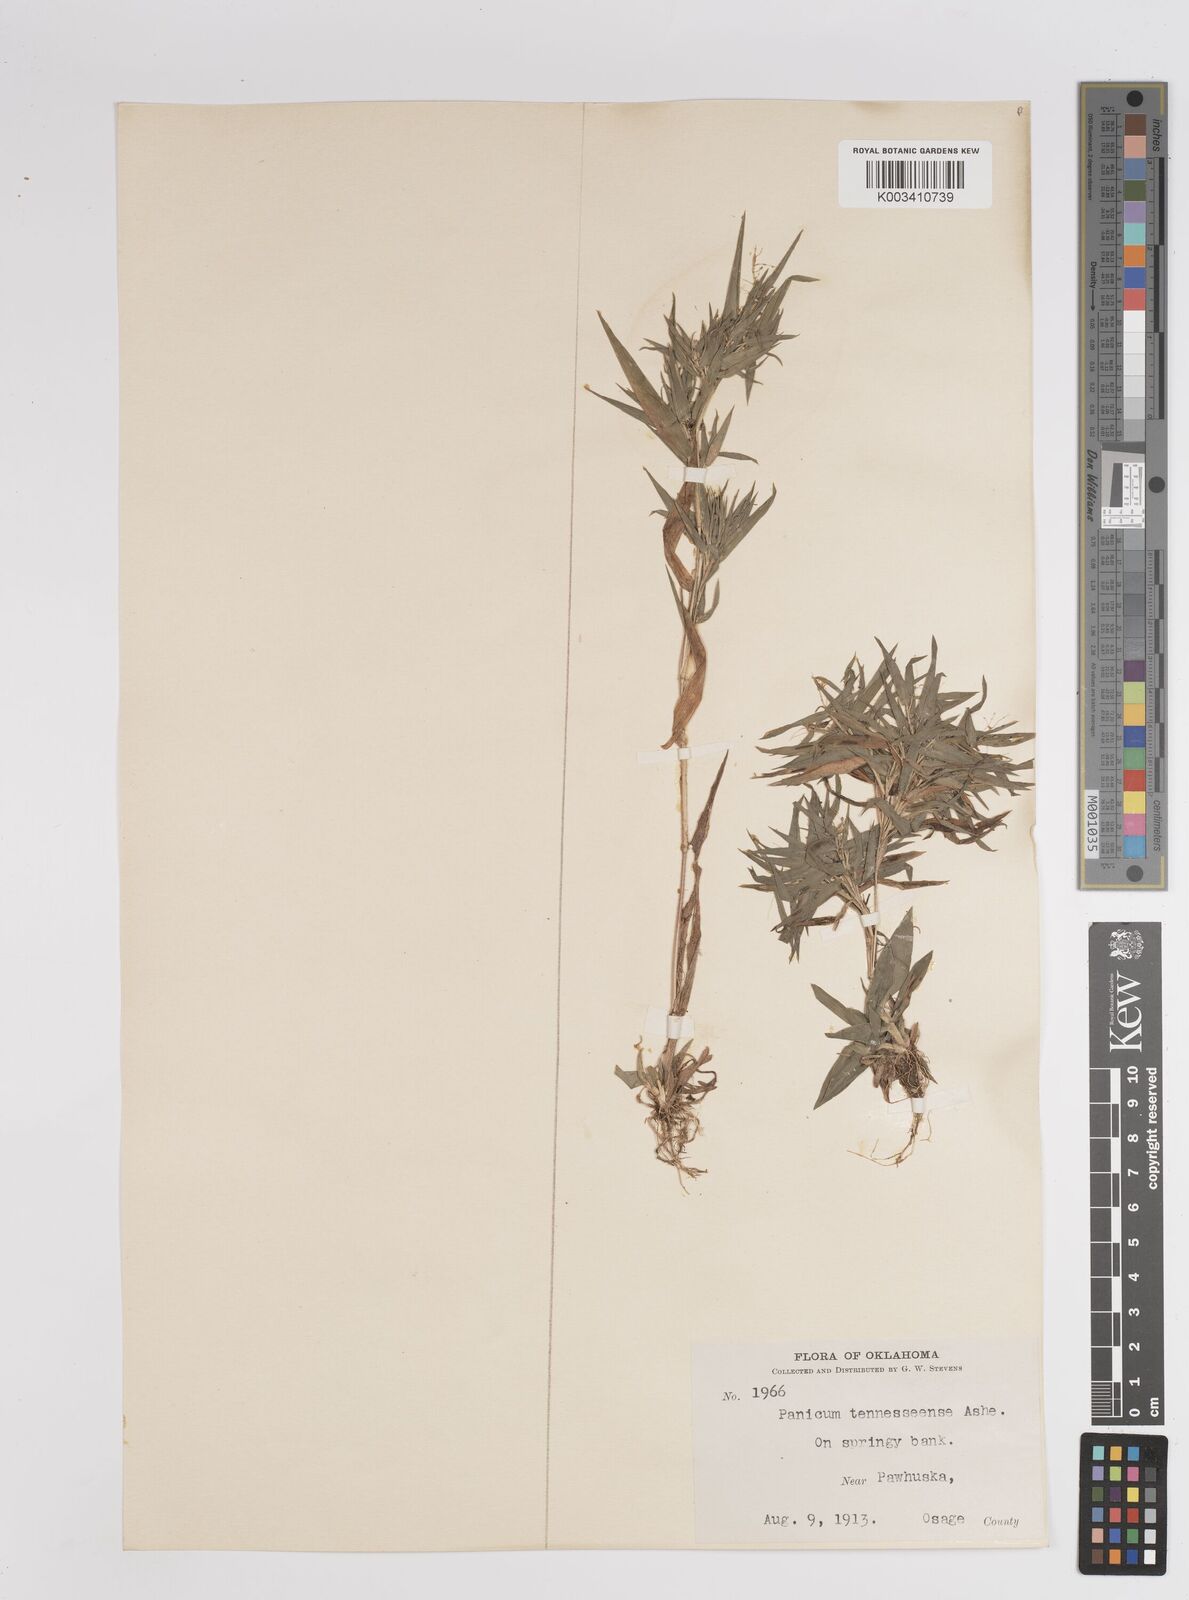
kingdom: Plantae
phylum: Tracheophyta
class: Liliopsida
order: Poales
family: Poaceae
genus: Dichanthelium
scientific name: Dichanthelium acuminatum
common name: Hairy panic grass
